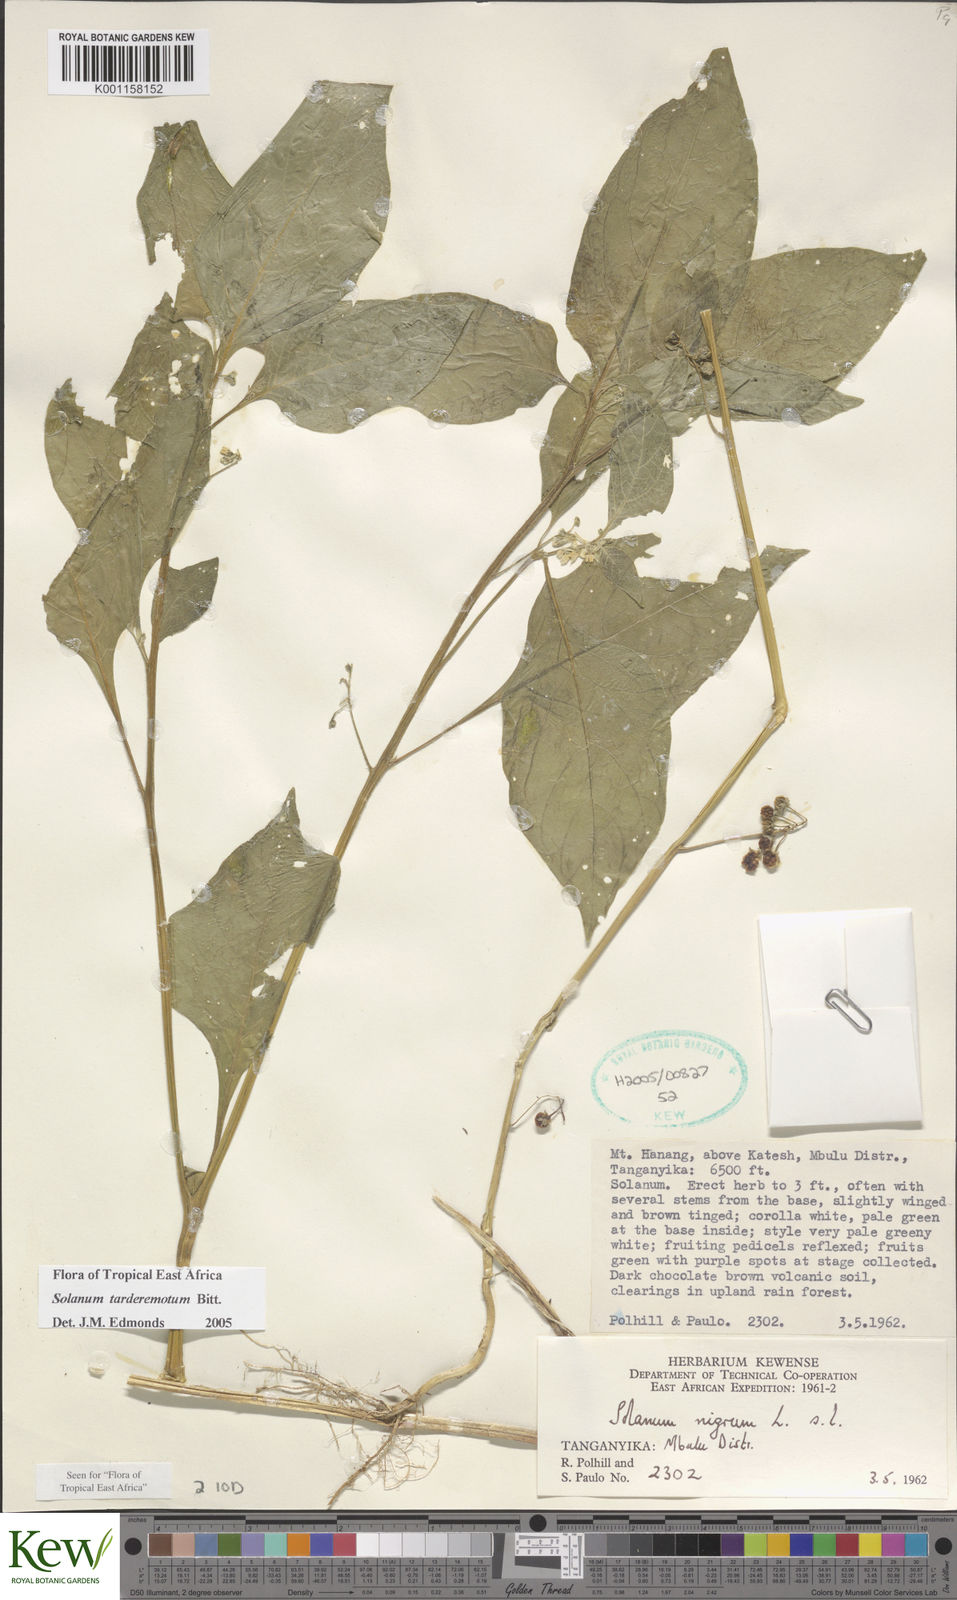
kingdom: Plantae
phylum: Tracheophyta
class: Magnoliopsida
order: Solanales
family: Solanaceae
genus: Solanum
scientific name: Solanum tarderemotum
